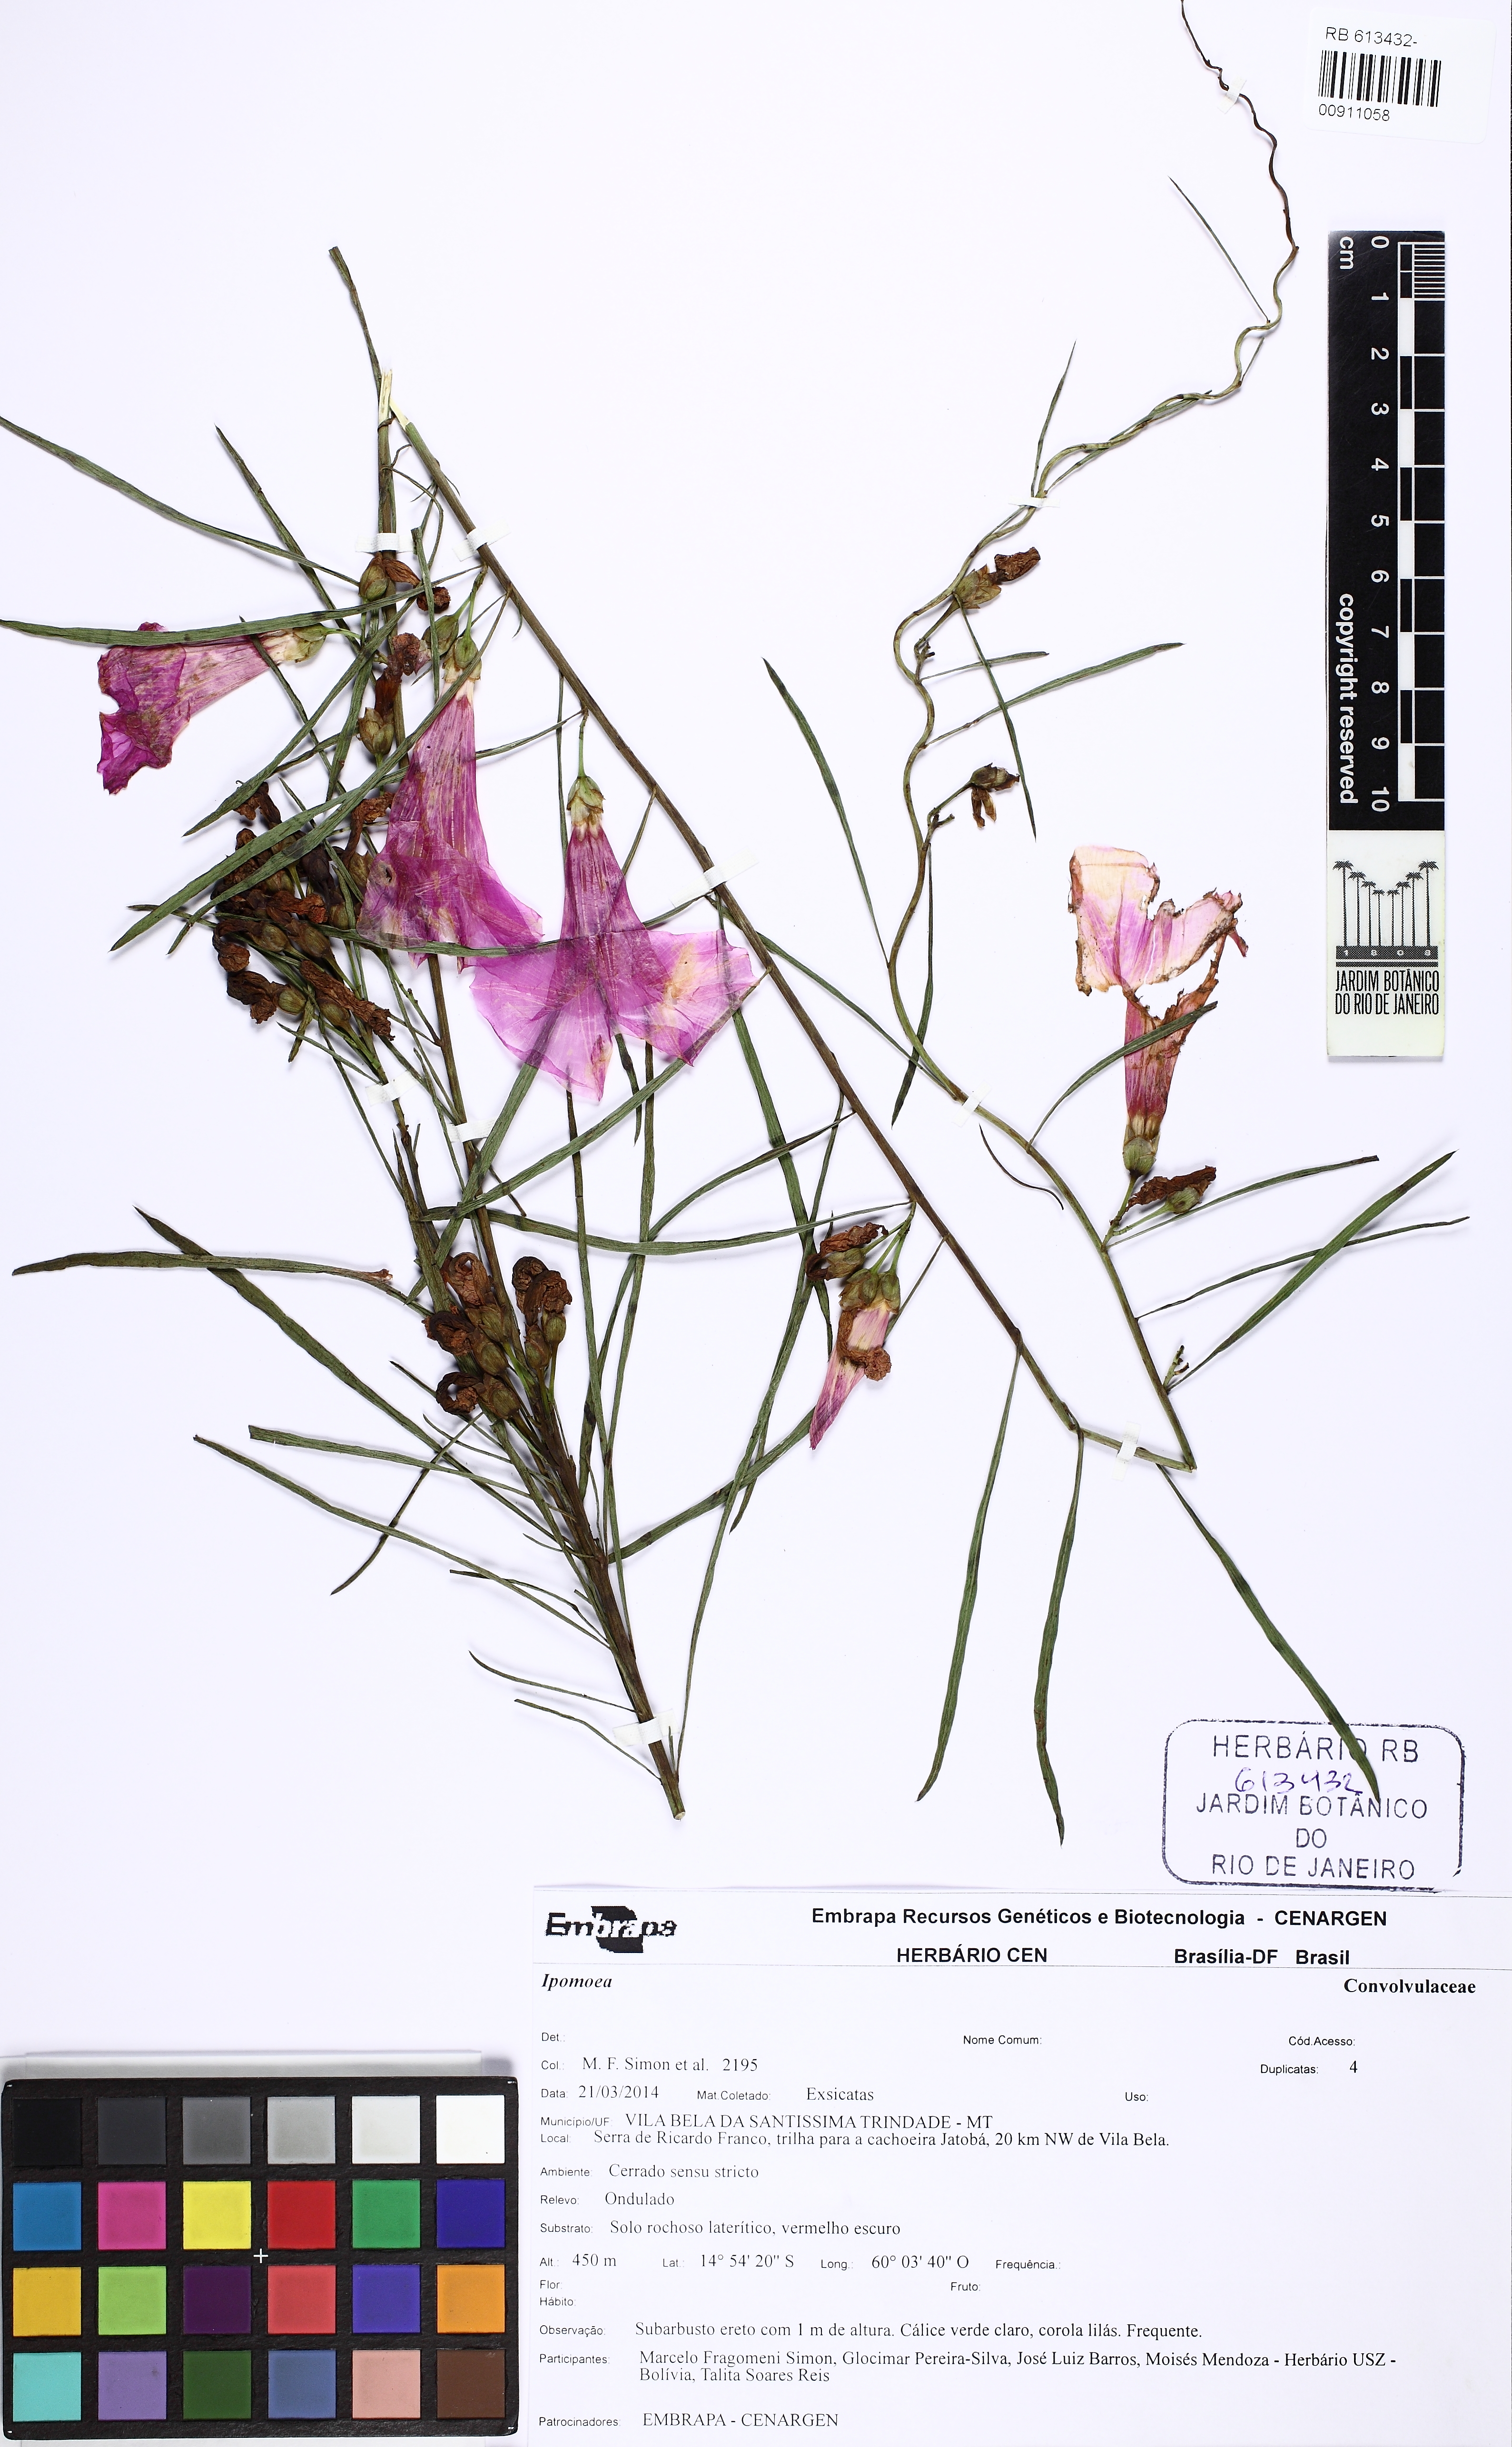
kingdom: Plantae
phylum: Tracheophyta
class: Magnoliopsida
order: Solanales
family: Convolvulaceae
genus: Ipomoea
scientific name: Ipomoea pinifolia
